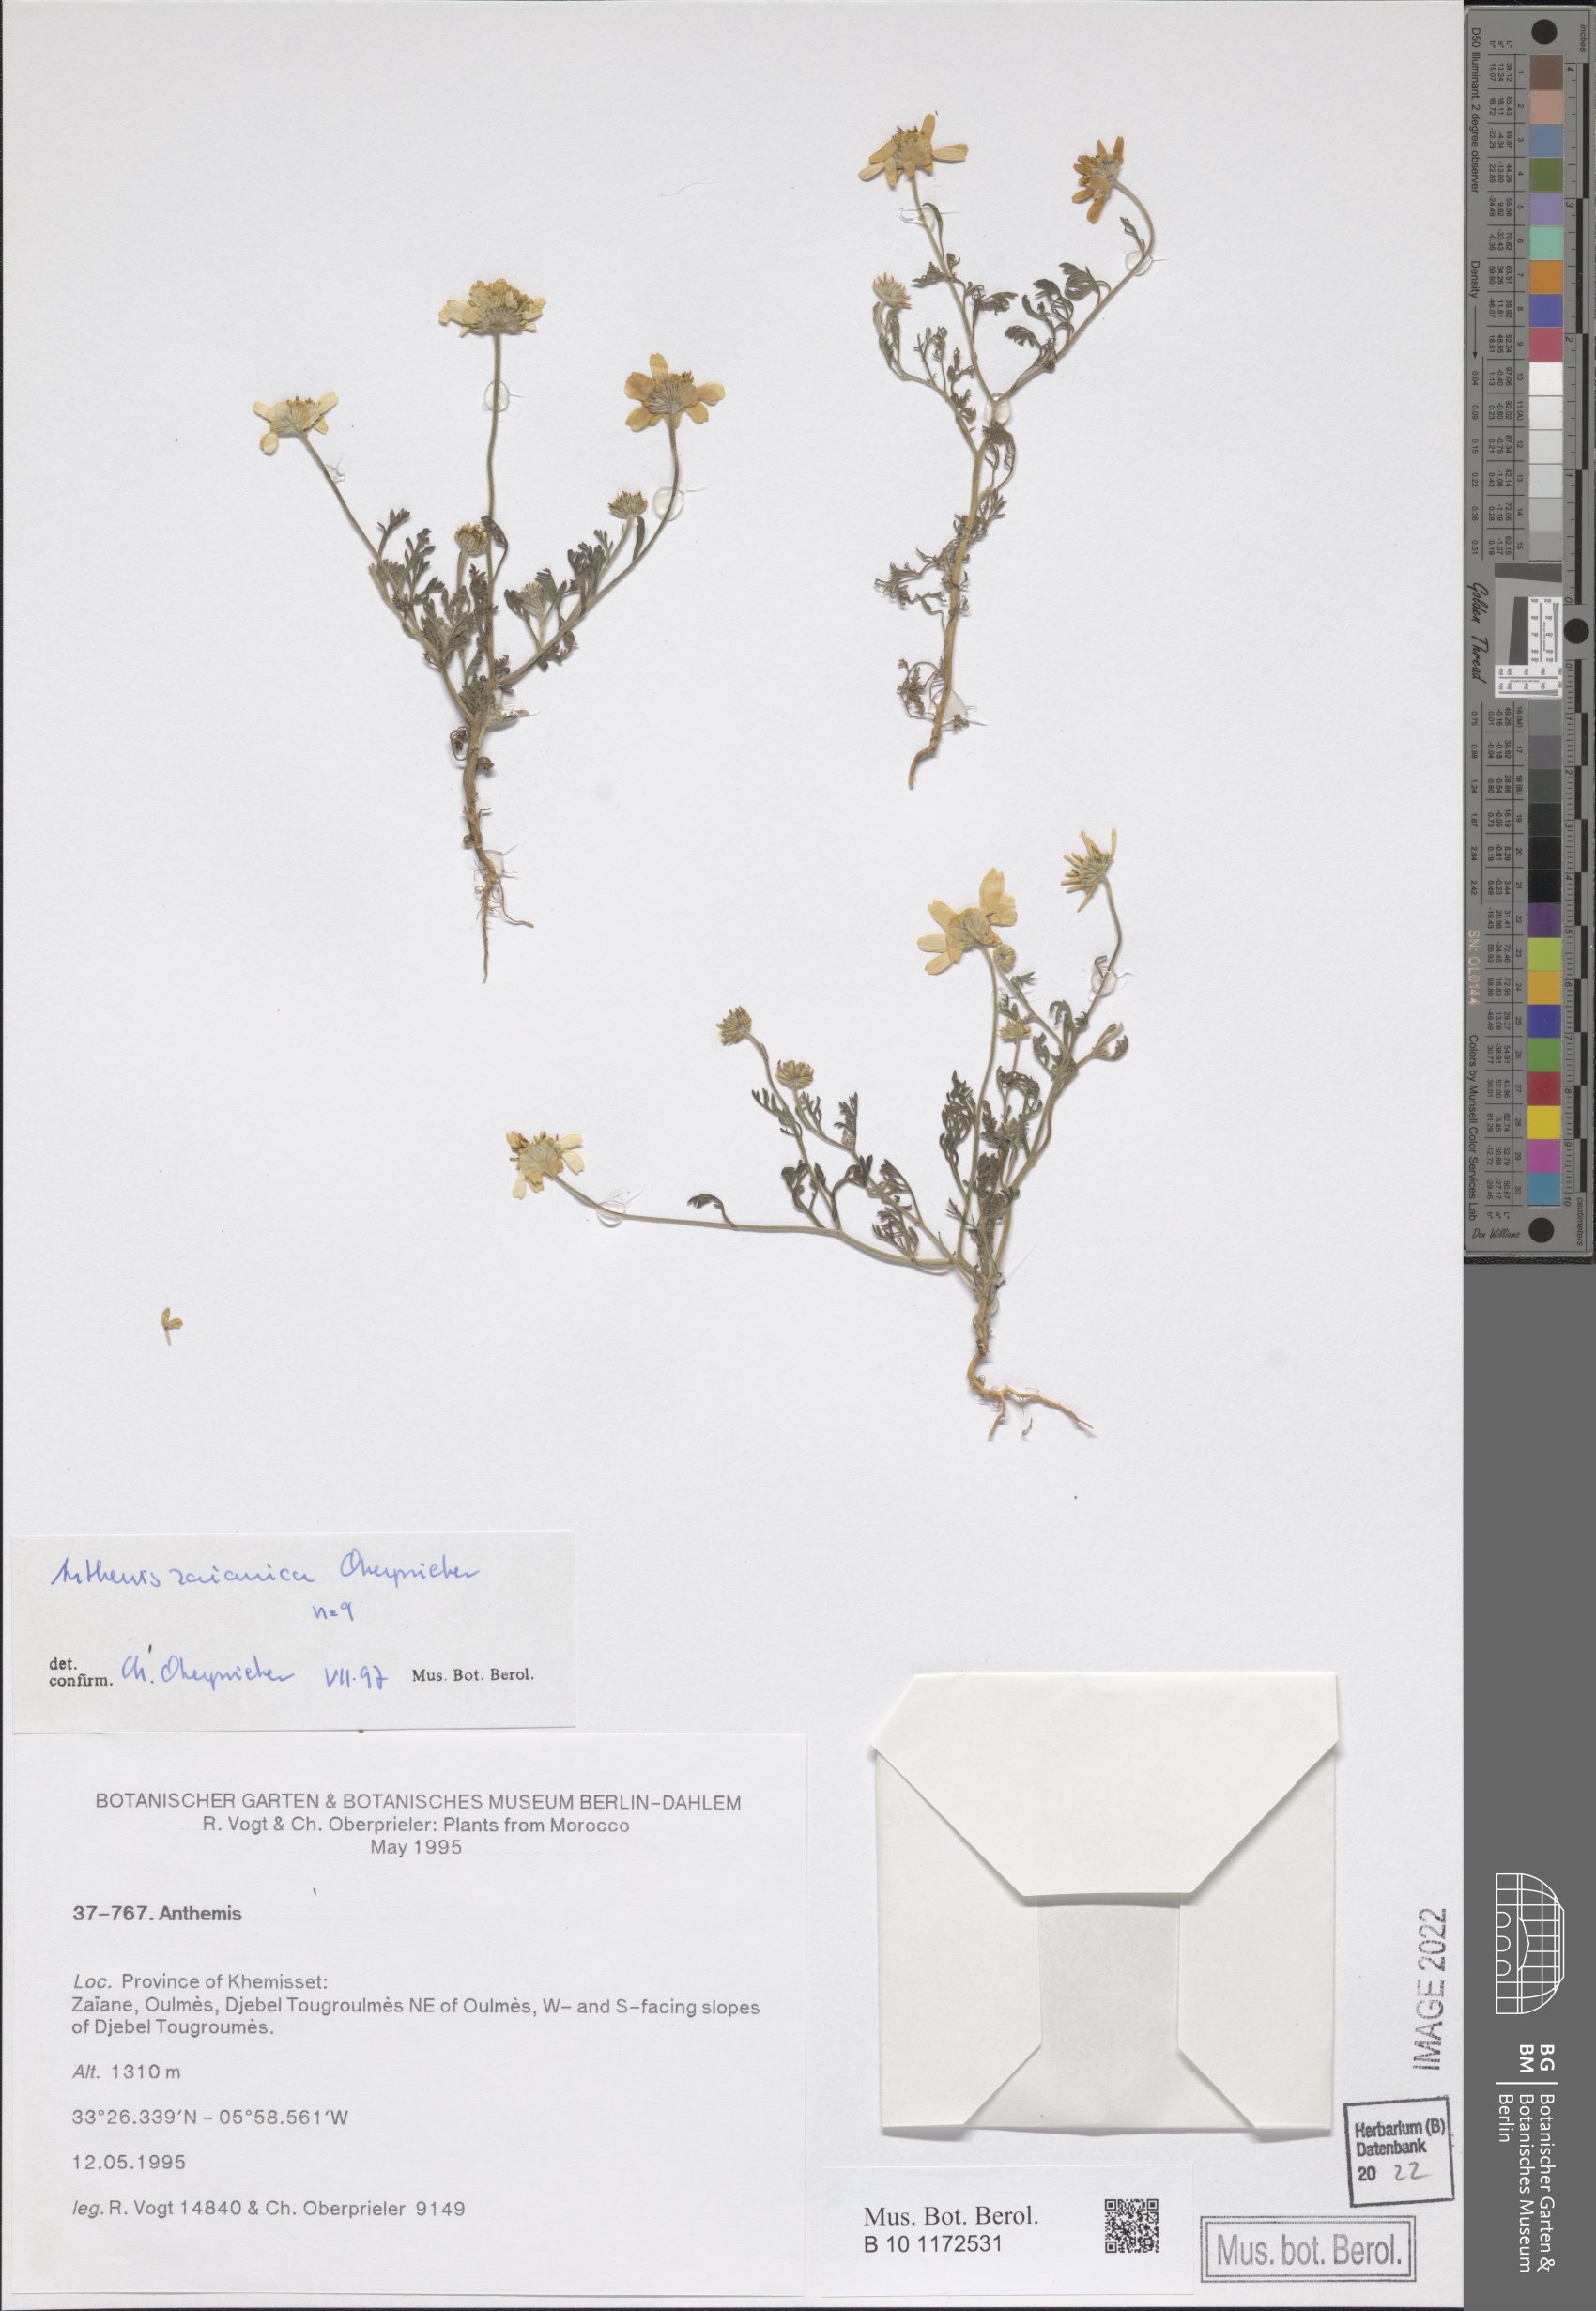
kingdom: Plantae
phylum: Tracheophyta
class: Magnoliopsida
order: Asterales
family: Asteraceae
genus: Anthemis
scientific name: Anthemis zaianica
